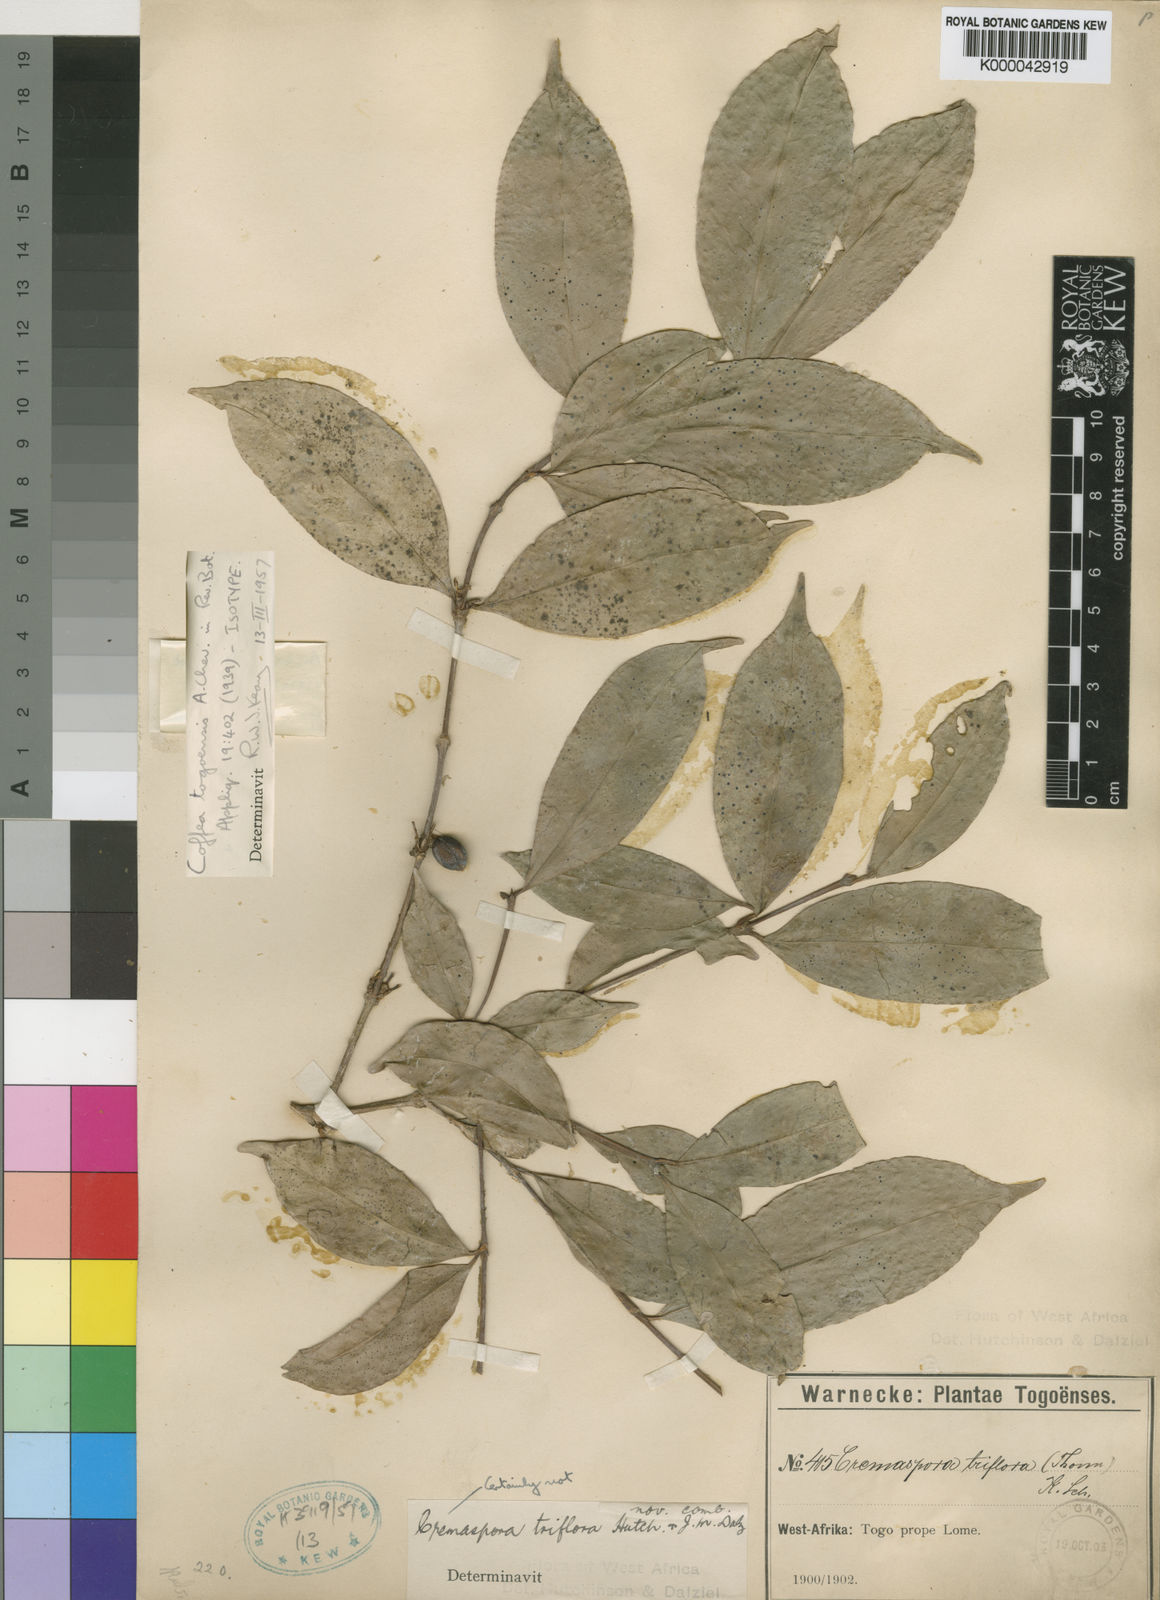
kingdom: Plantae
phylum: Tracheophyta
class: Magnoliopsida
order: Gentianales
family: Rubiaceae
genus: Coffea
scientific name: Coffea togoensis
